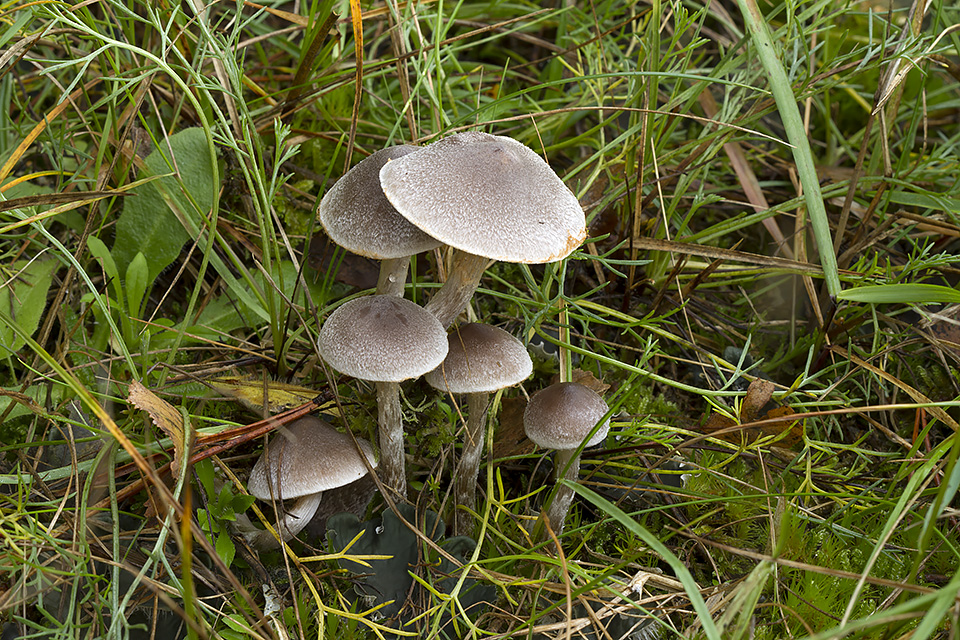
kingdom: Fungi
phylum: Basidiomycota
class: Agaricomycetes
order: Agaricales
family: Cortinariaceae
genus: Cortinarius
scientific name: Cortinarius hemitrichus
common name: hvidfnugget slørhat
